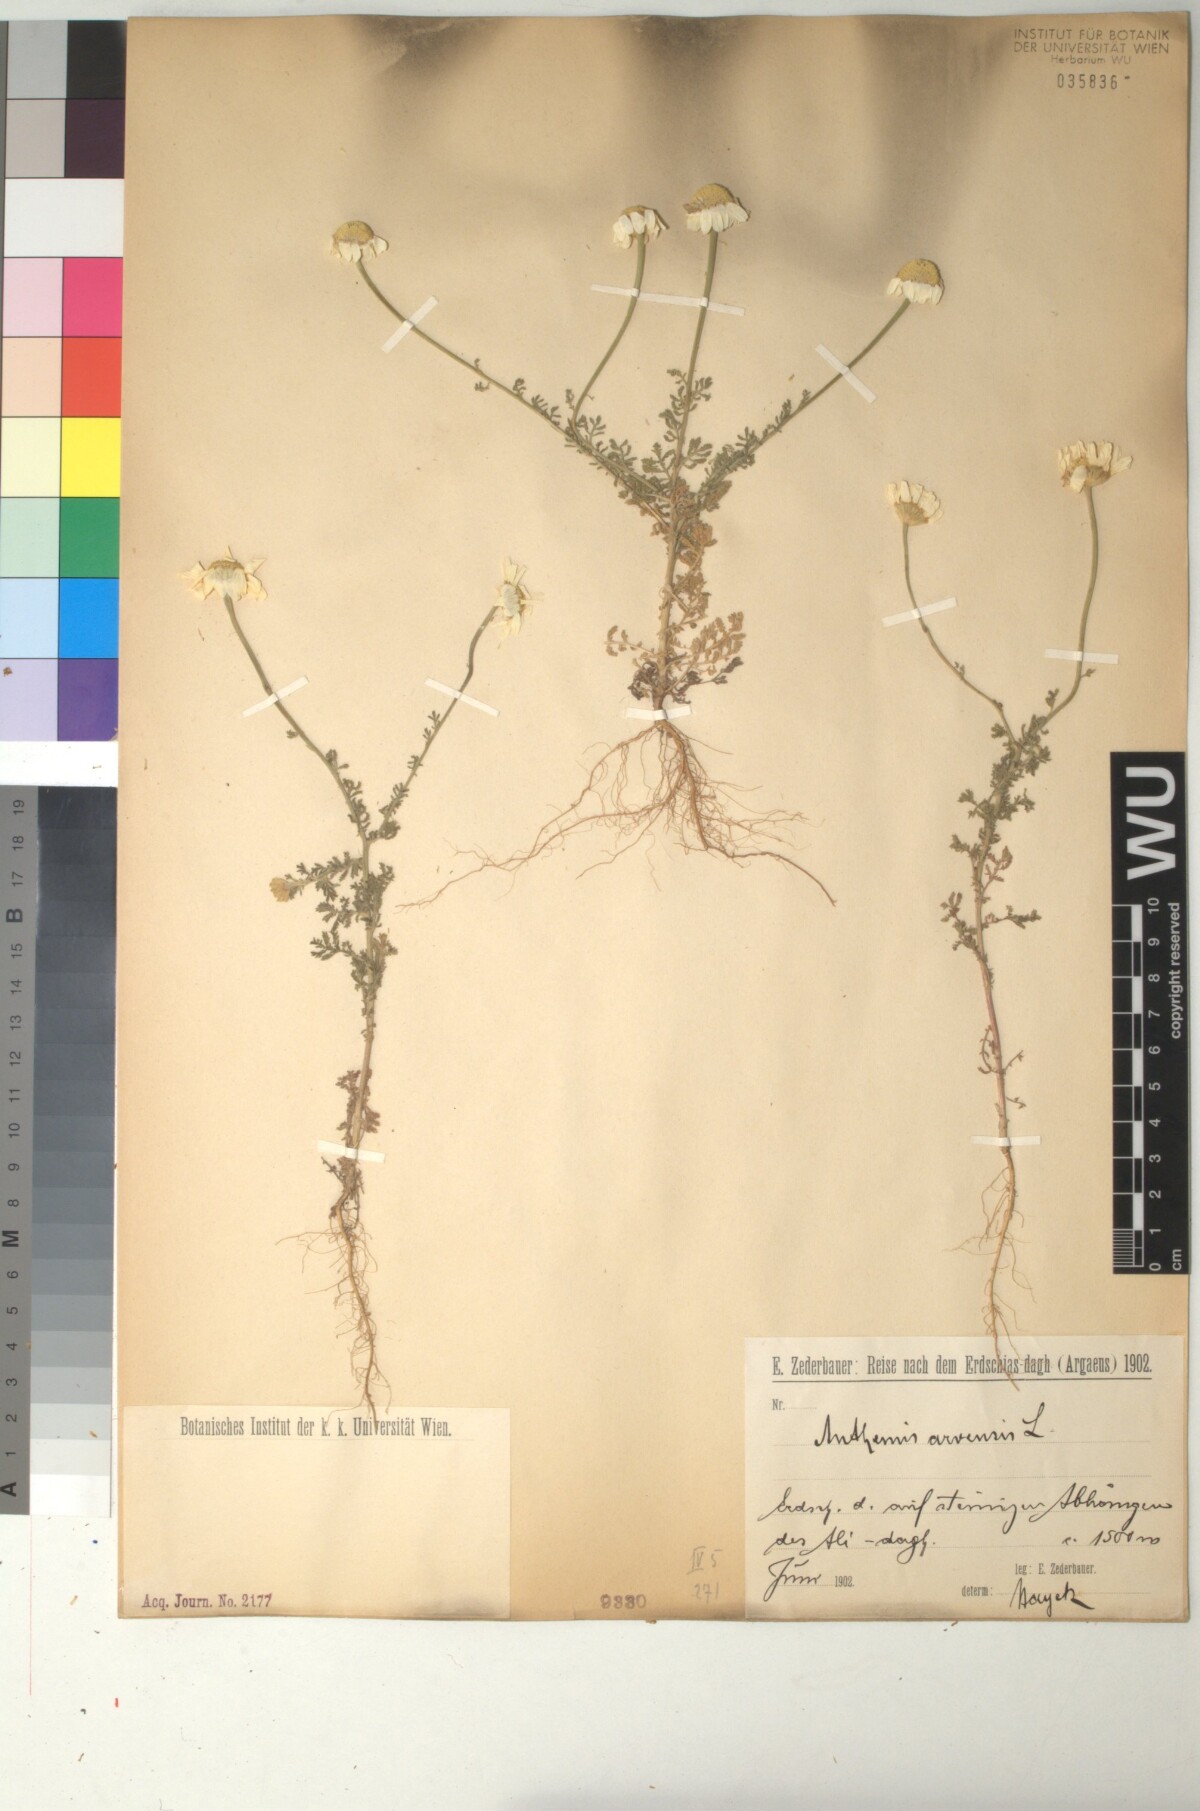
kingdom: Plantae
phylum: Tracheophyta
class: Magnoliopsida
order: Asterales
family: Asteraceae
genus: Anthemis
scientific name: Anthemis arvensis
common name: Corn chamomile
